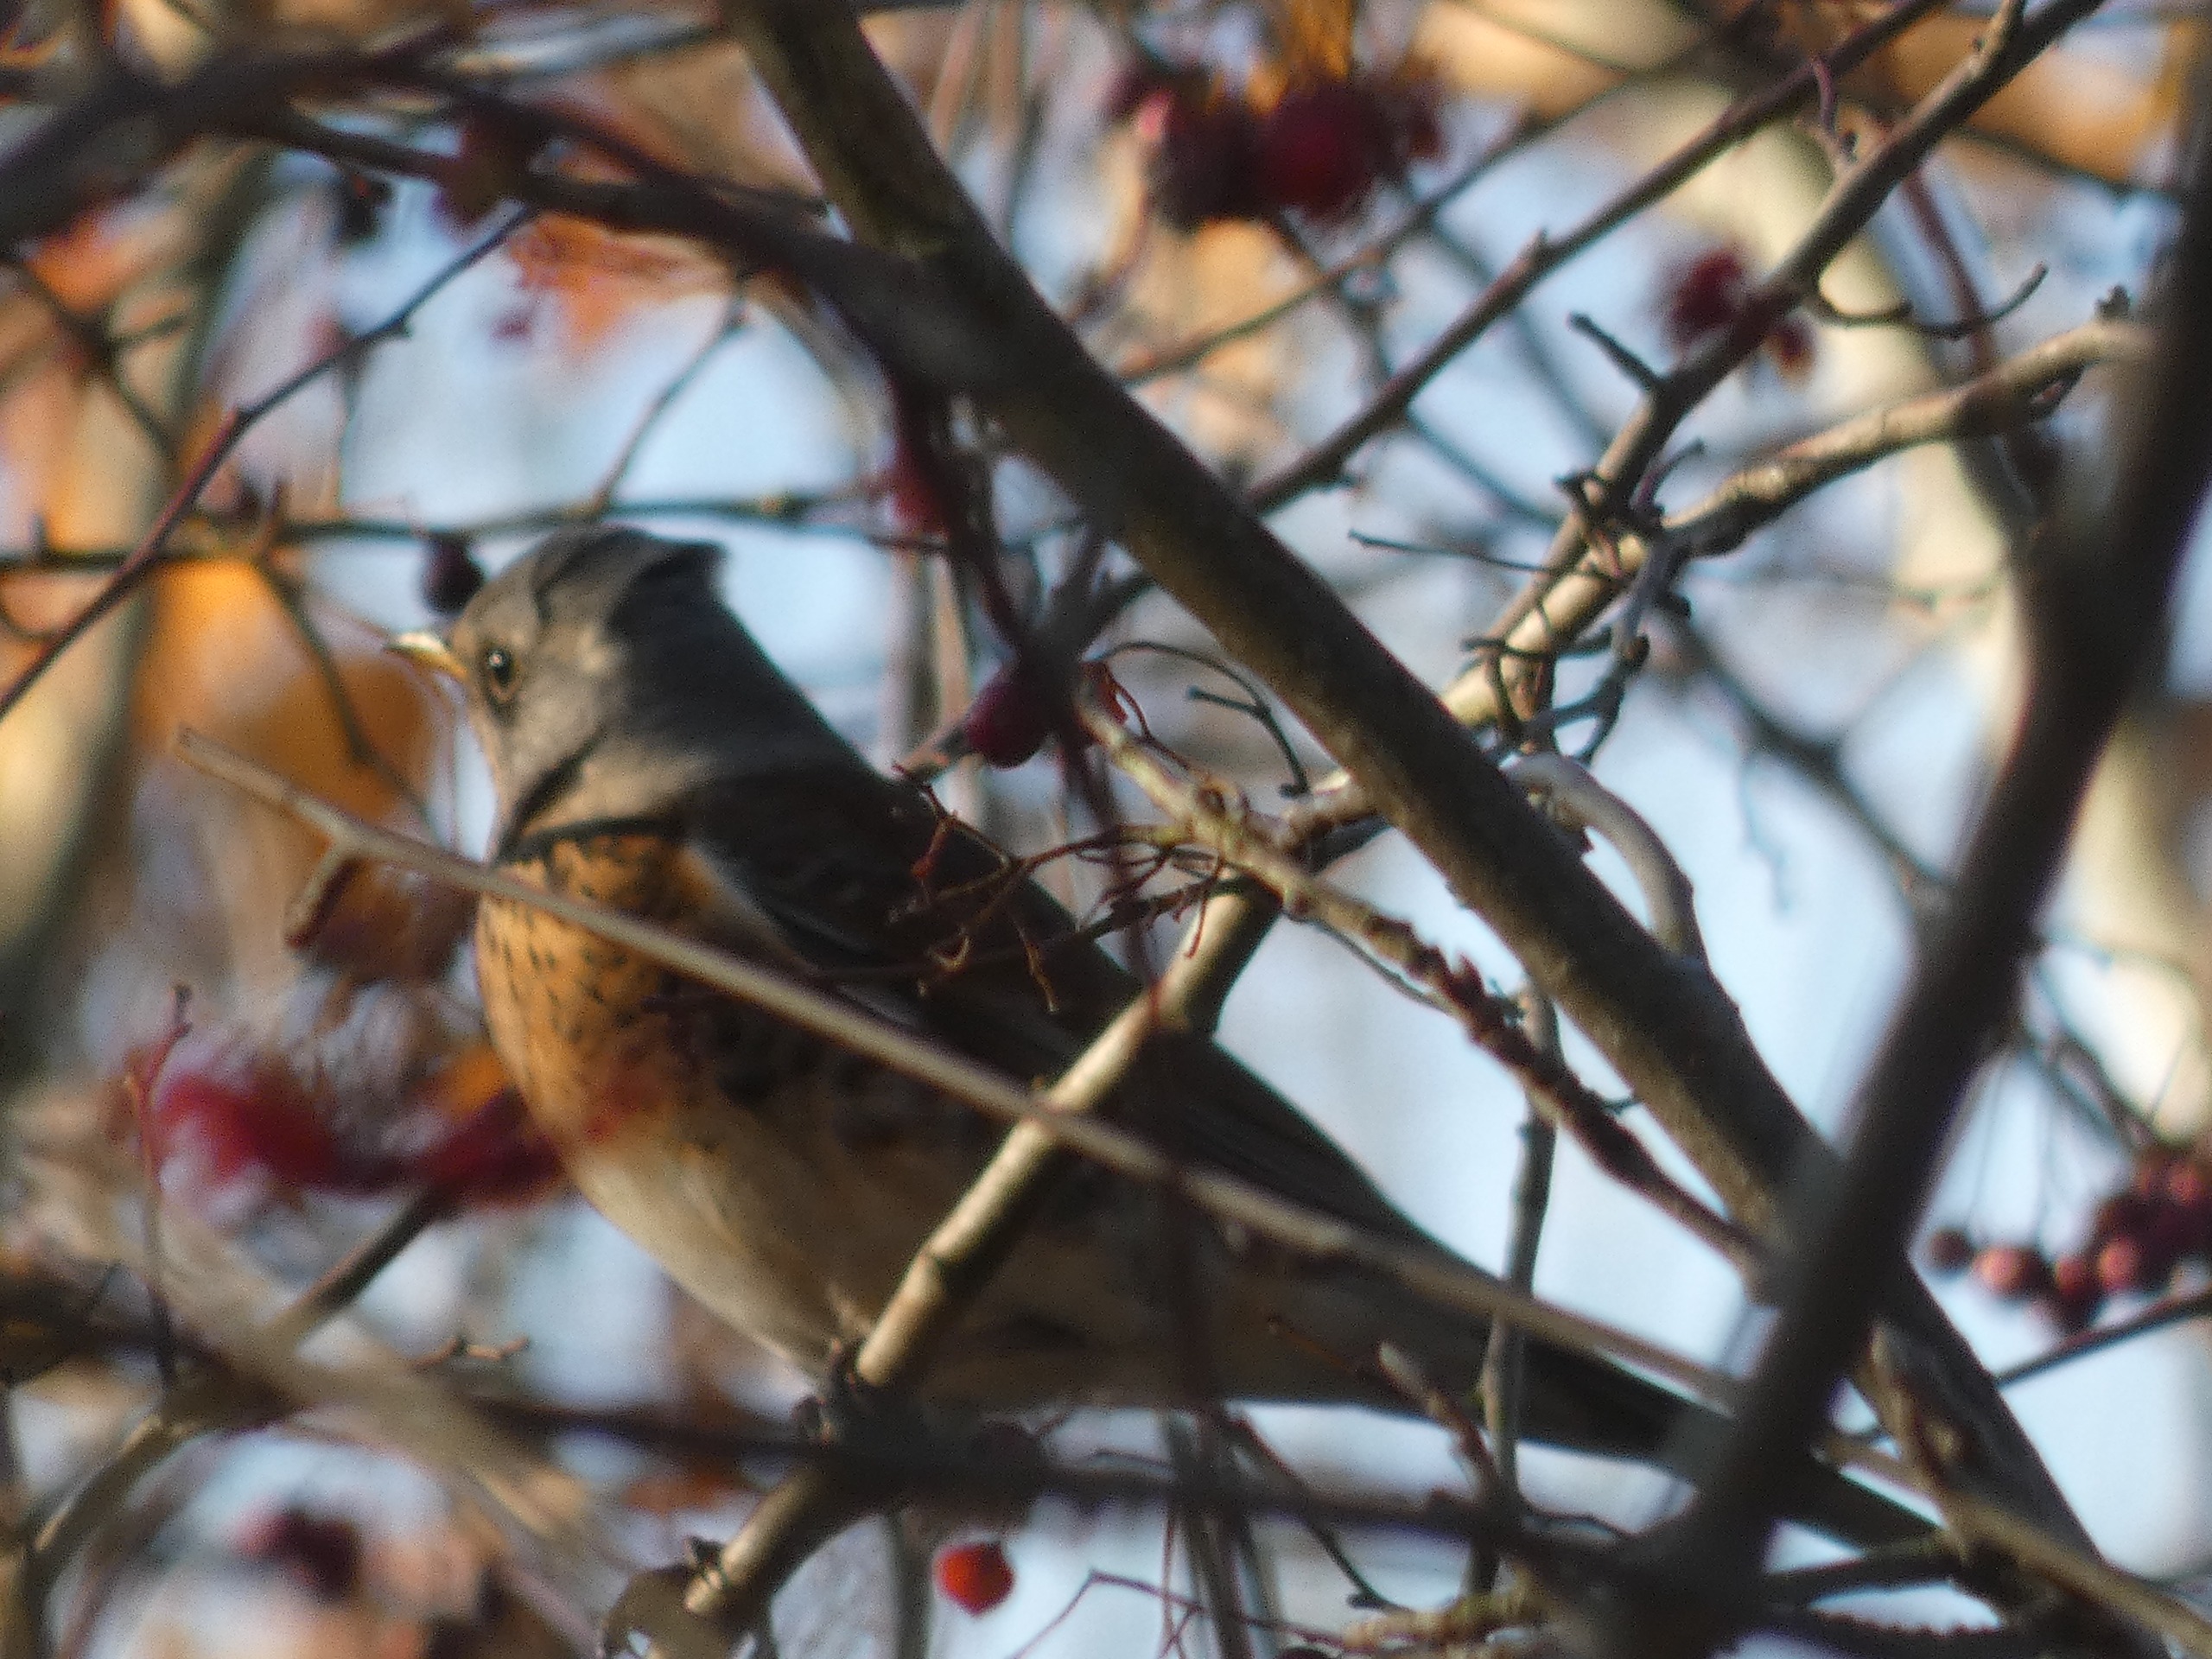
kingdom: Animalia
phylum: Chordata
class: Aves
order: Passeriformes
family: Turdidae
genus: Turdus
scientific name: Turdus pilaris
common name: Sjagger
